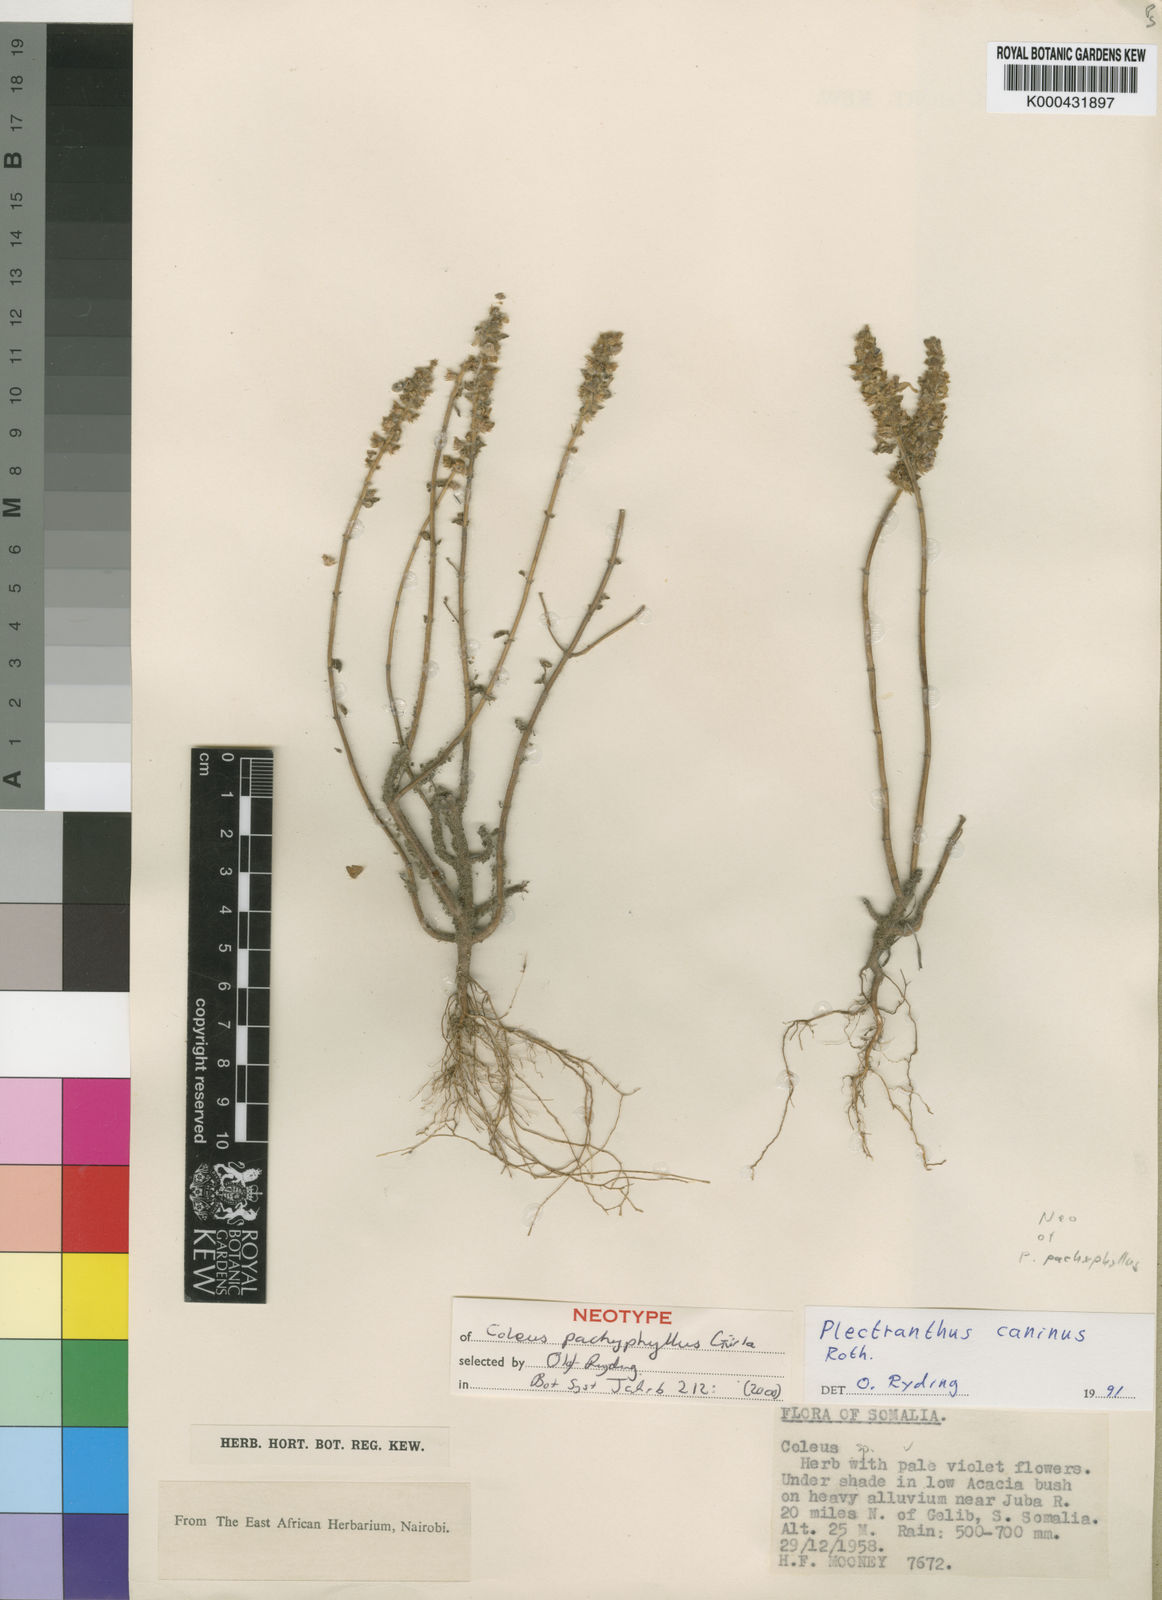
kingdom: Plantae
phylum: Tracheophyta
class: Magnoliopsida
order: Lamiales
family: Lamiaceae
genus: Coleus
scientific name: Coleus caninus
